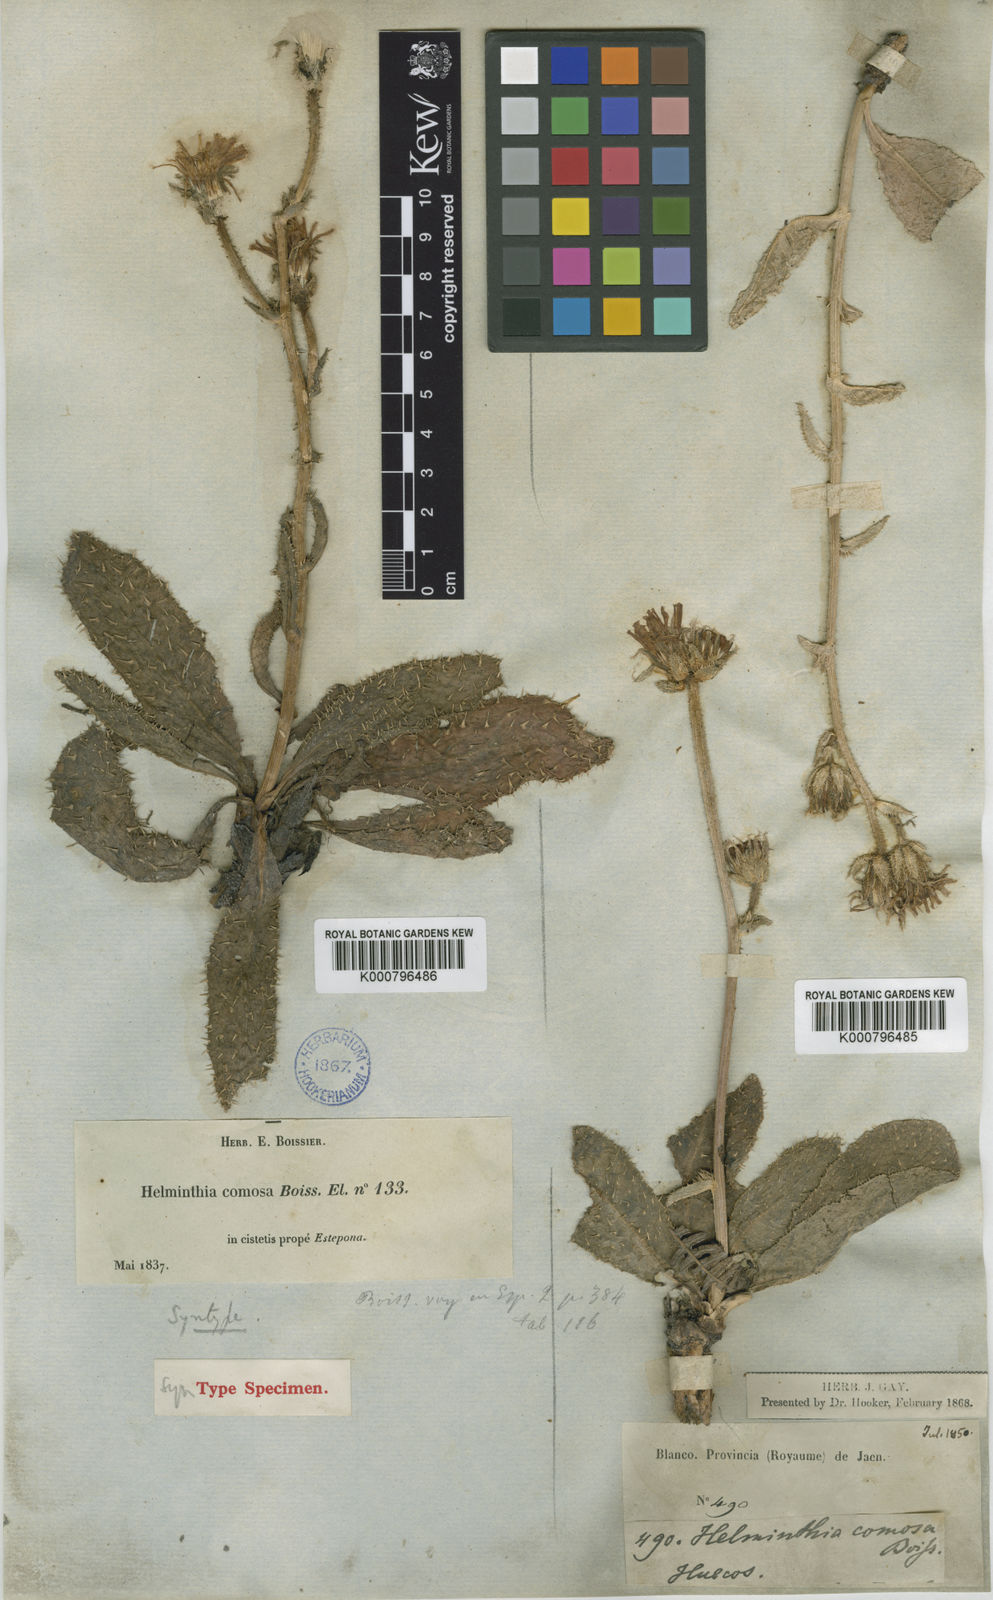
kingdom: Plantae
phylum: Tracheophyta
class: Magnoliopsida
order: Asterales
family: Asteraceae
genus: Helminthotheca
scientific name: Helminthotheca comosa
